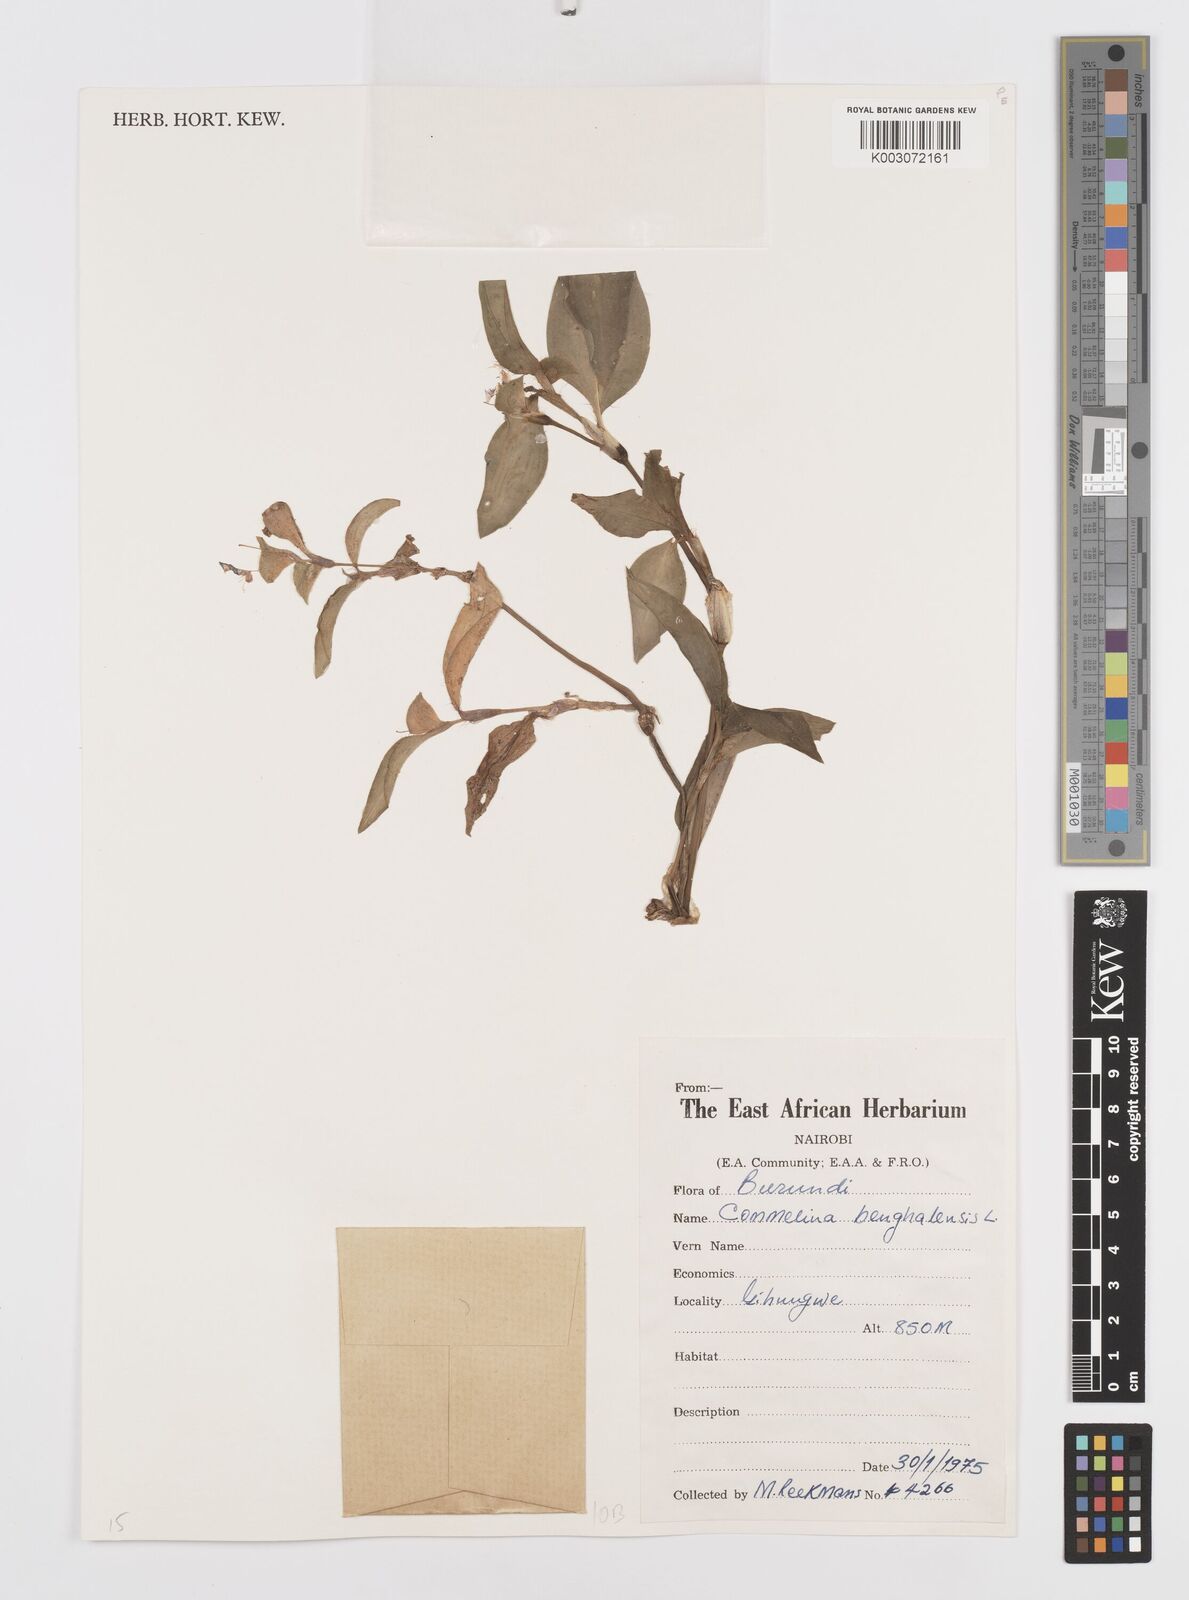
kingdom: Plantae
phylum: Tracheophyta
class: Liliopsida
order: Commelinales
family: Commelinaceae
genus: Commelina
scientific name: Commelina benghalensis
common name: Jio
